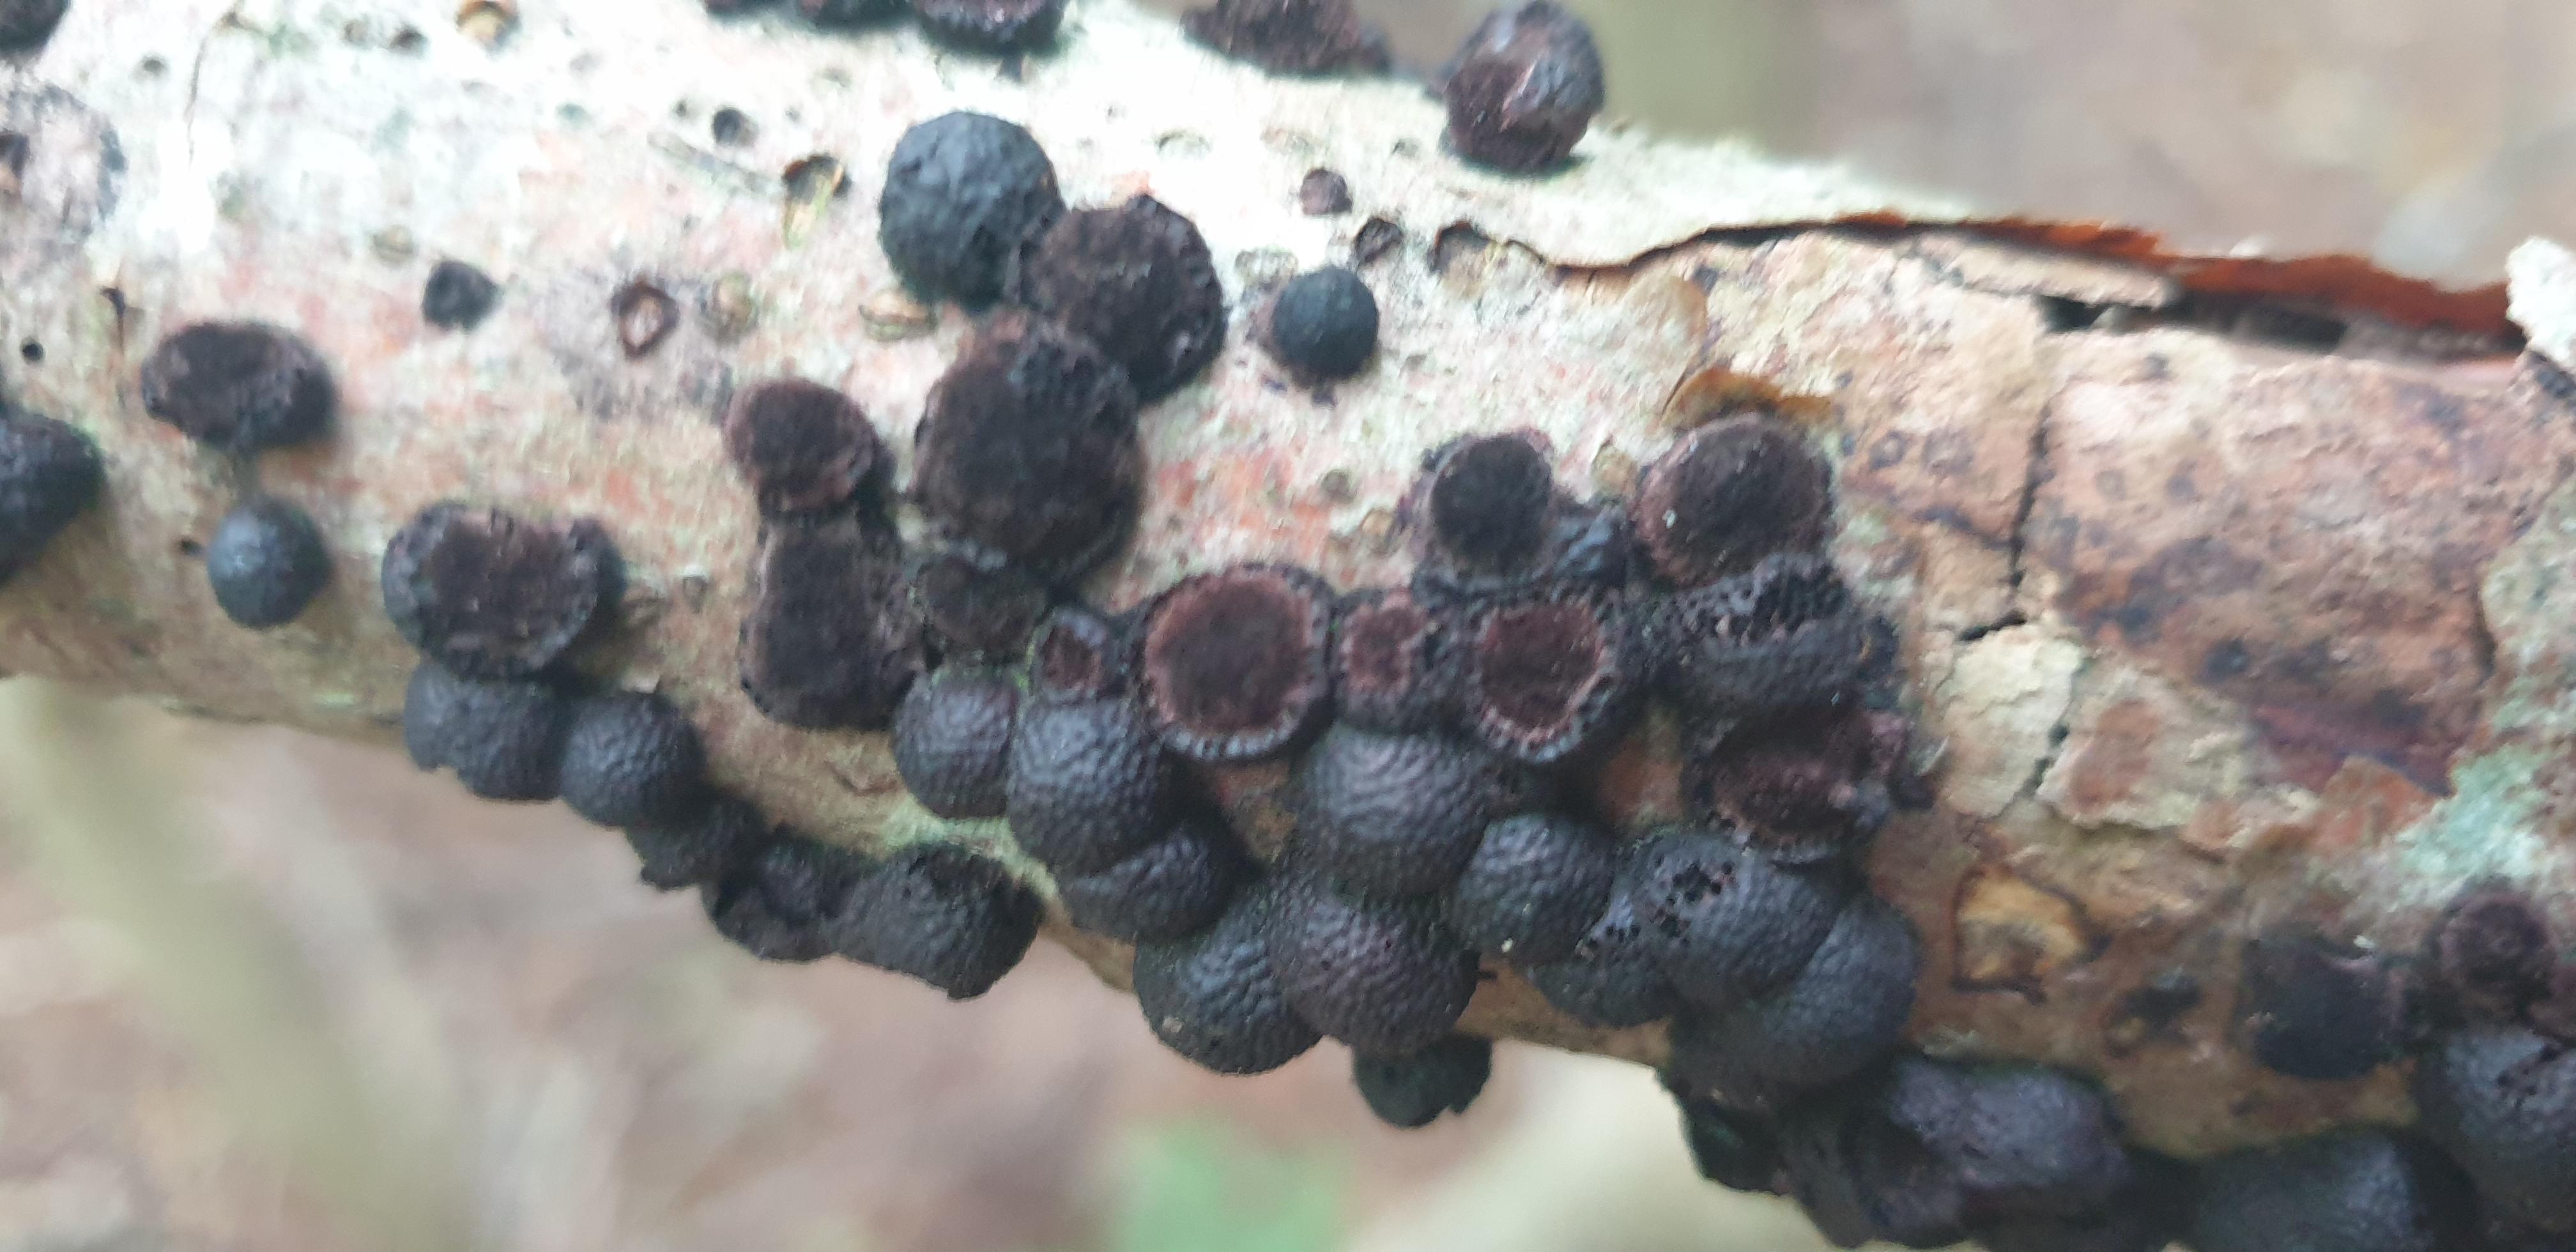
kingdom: Fungi
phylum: Ascomycota
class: Sordariomycetes
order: Xylariales
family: Hypoxylaceae
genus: Hypoxylon
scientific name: Hypoxylon fragiforme
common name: kuljordbær
